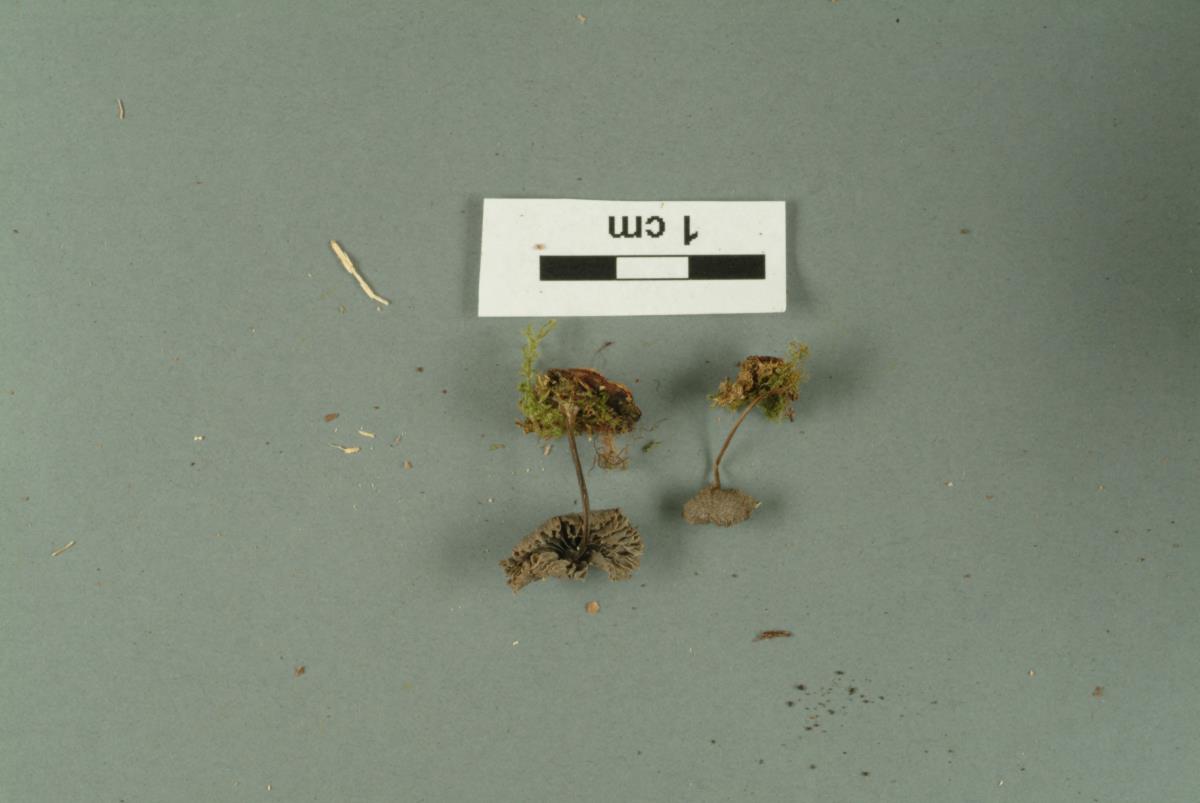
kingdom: Fungi
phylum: Basidiomycota
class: Agaricomycetes
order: Polyporales
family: Irpicaceae
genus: Byssomerulius
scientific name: Byssomerulius
